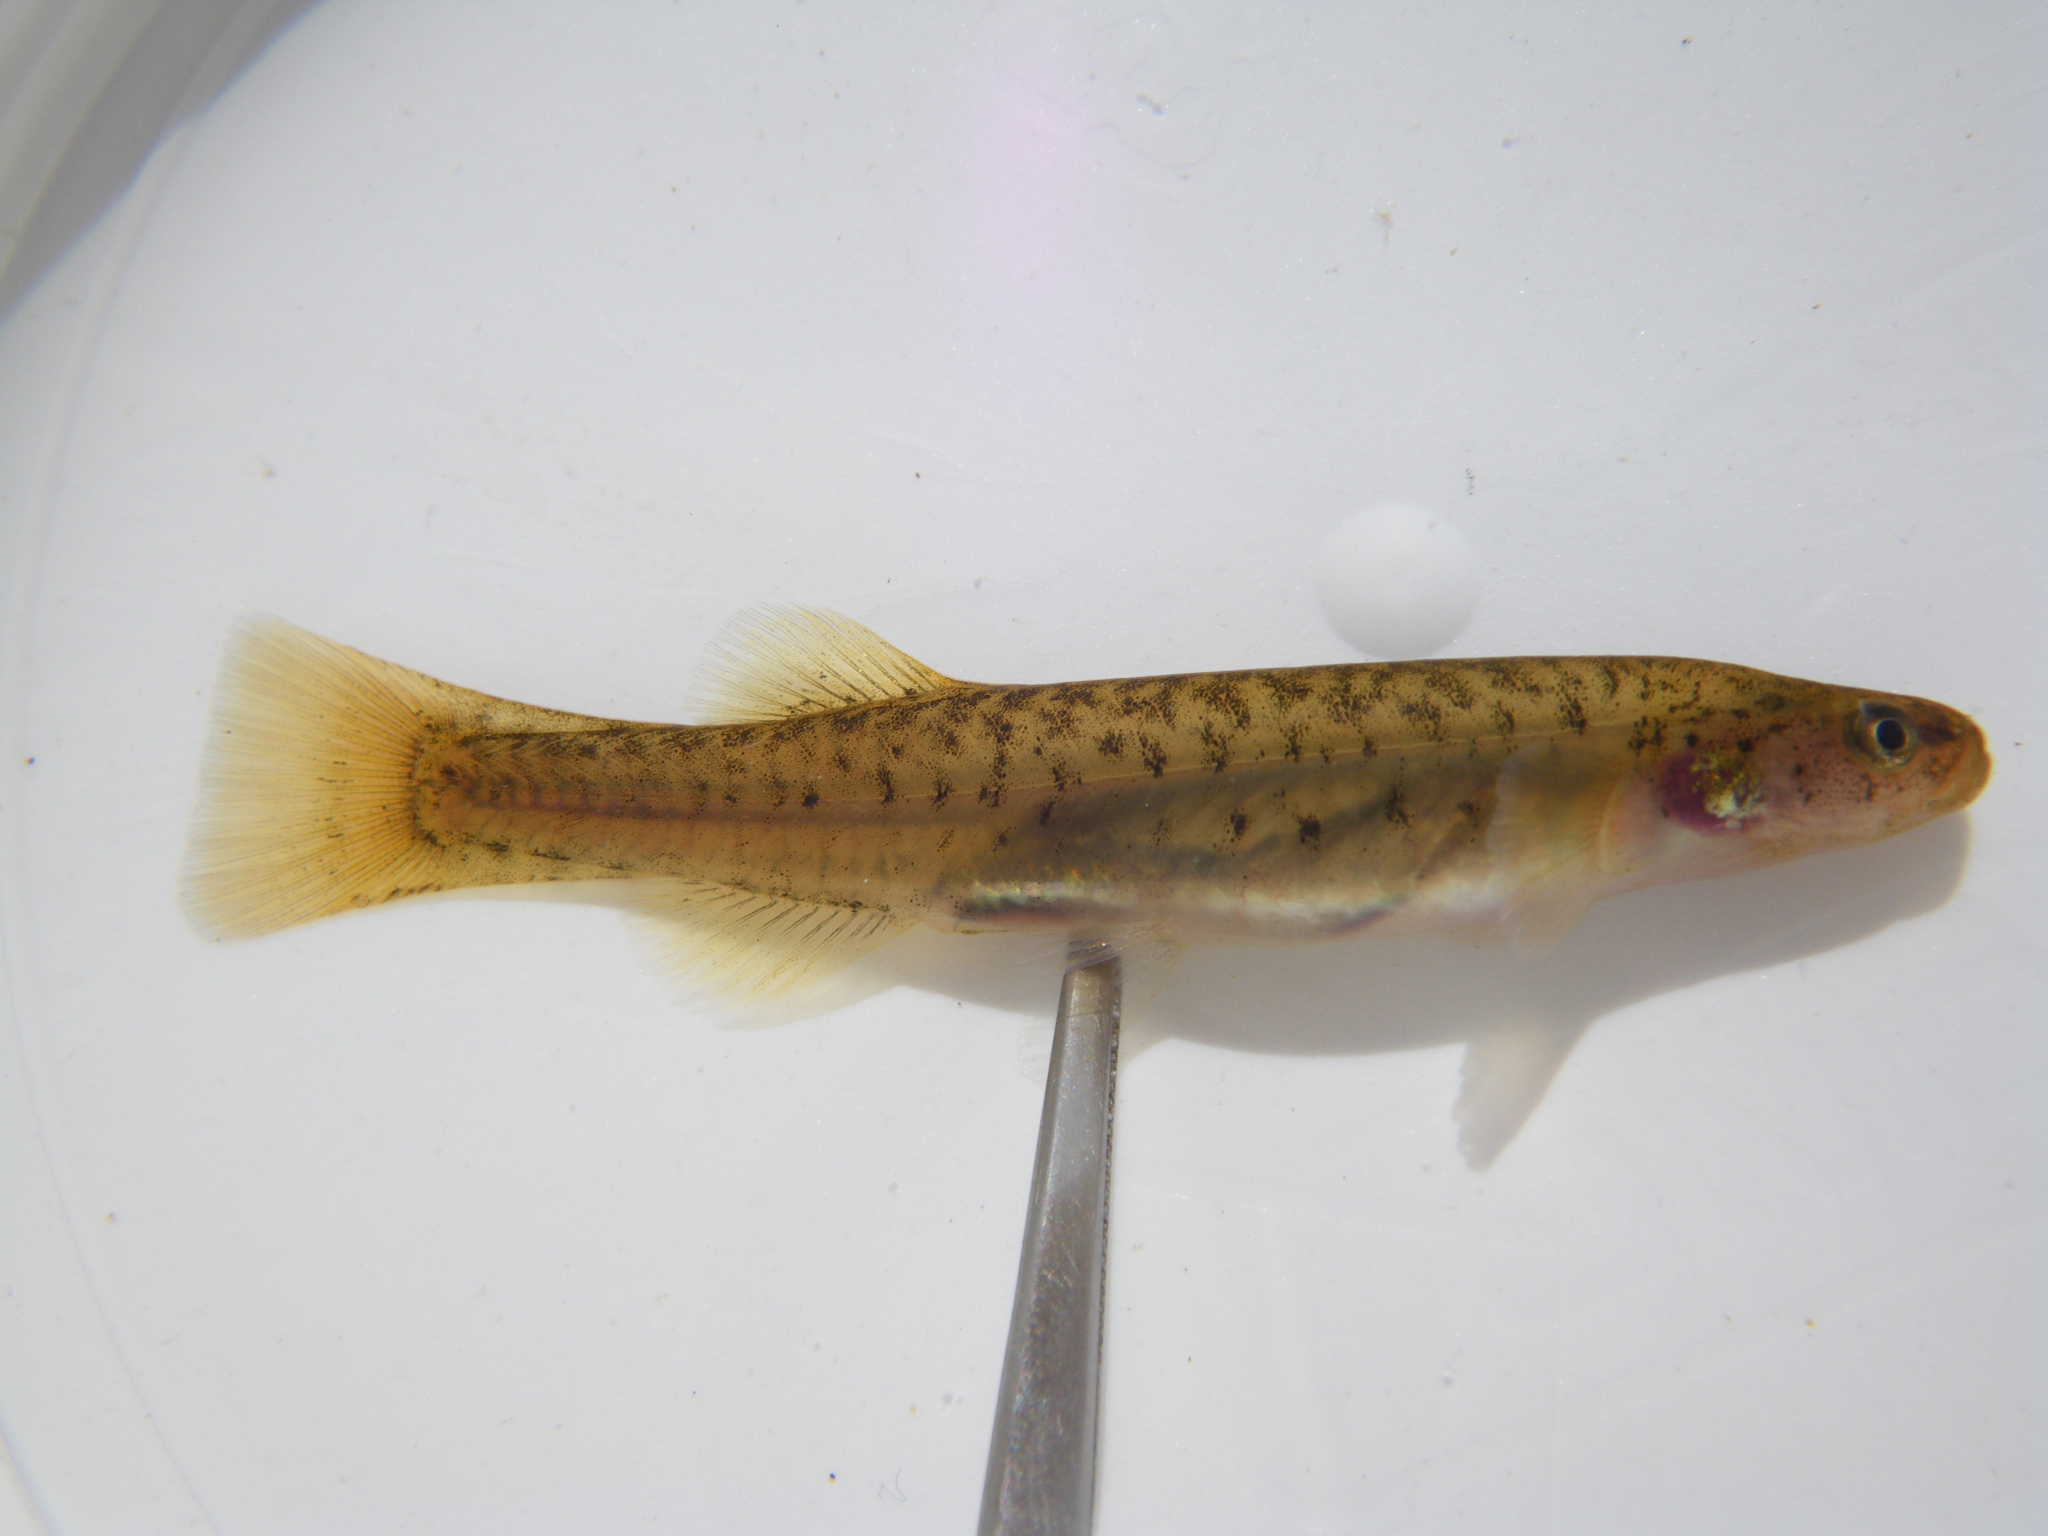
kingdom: Animalia
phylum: Chordata
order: Osmeriformes
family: Galaxiidae
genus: Galaxias
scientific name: Galaxias
